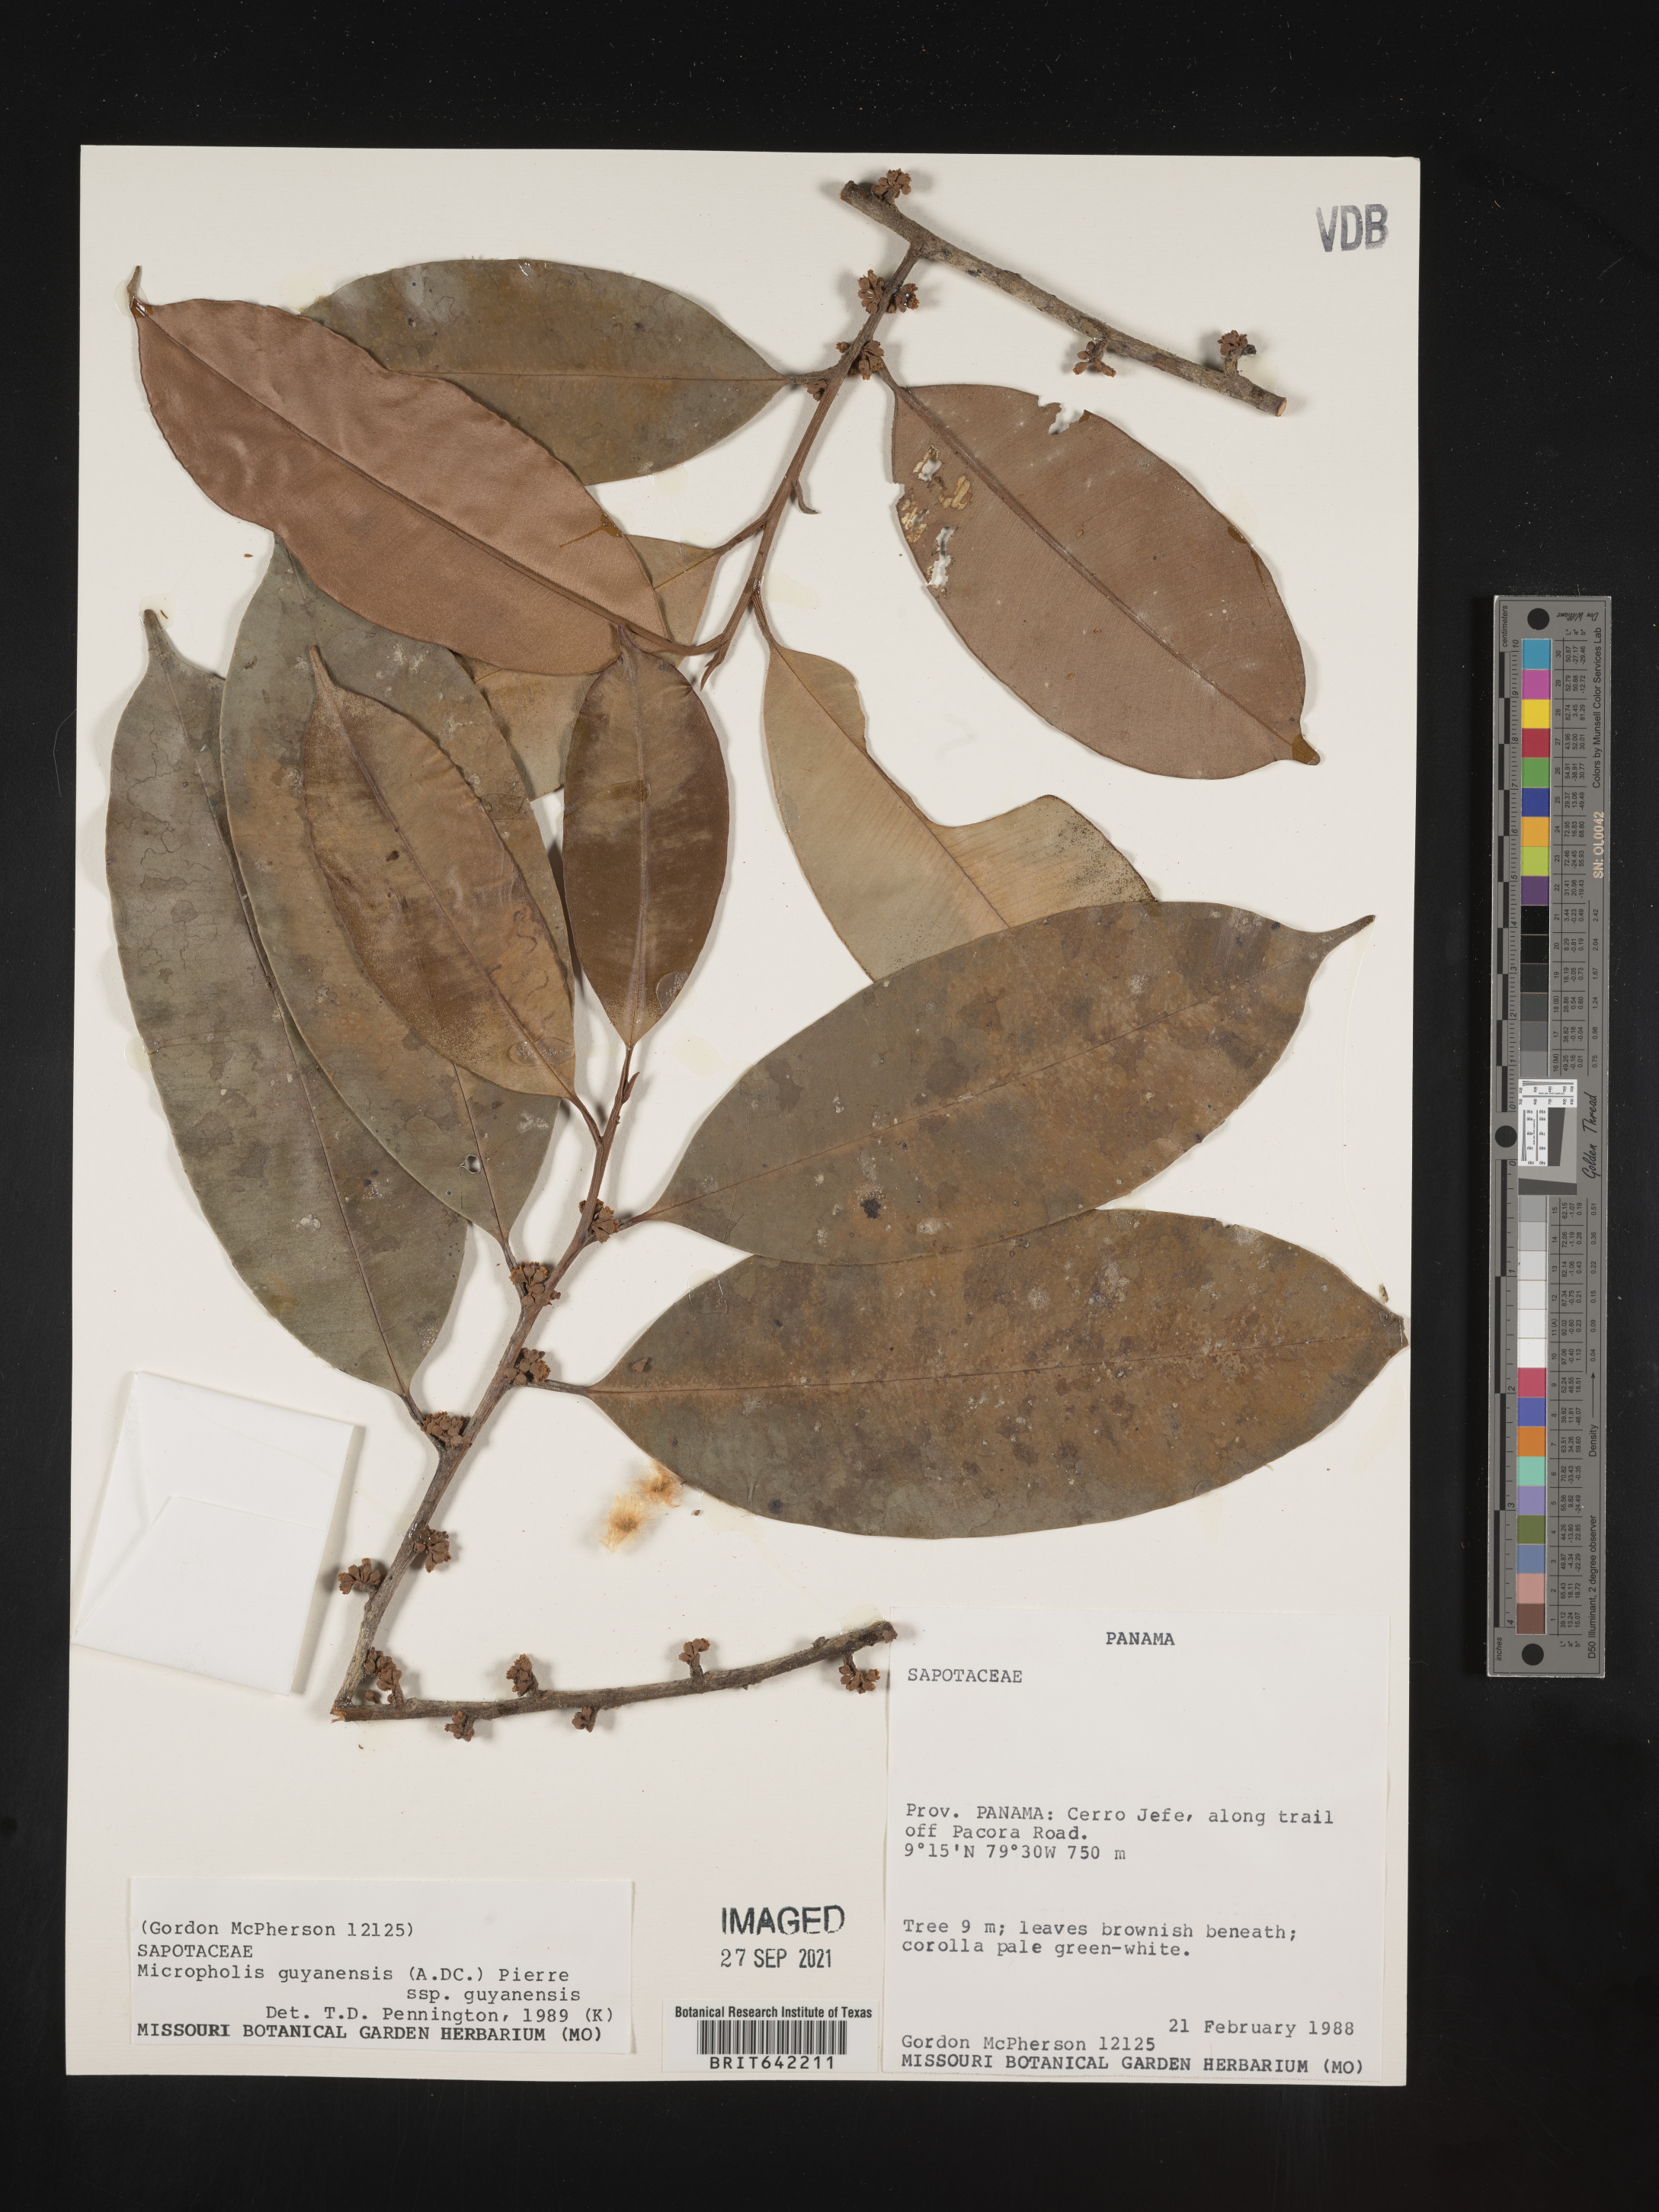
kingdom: Plantae
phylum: Tracheophyta
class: Magnoliopsida
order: Ericales
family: Sapotaceae
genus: Micropholis
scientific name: Micropholis
